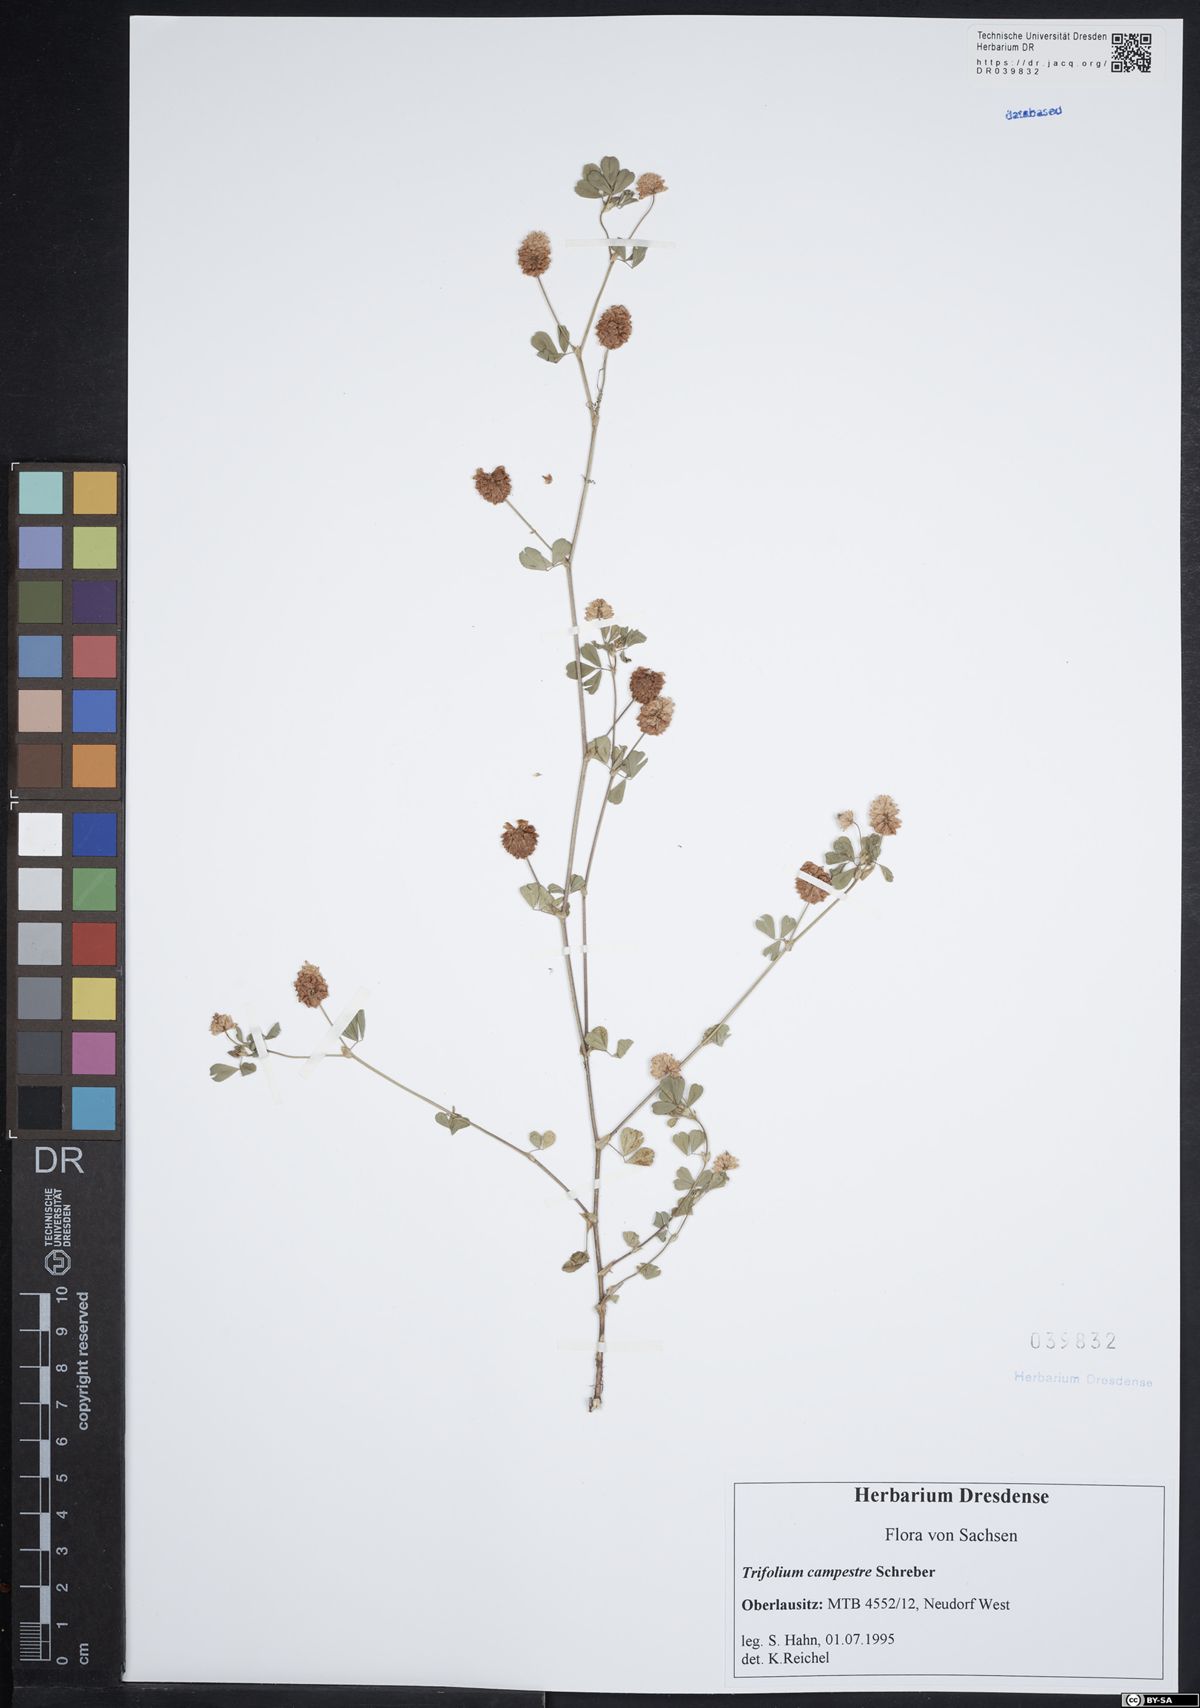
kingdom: Plantae
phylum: Tracheophyta
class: Magnoliopsida
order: Fabales
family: Fabaceae
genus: Trifolium
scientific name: Trifolium campestre
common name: Field clover
